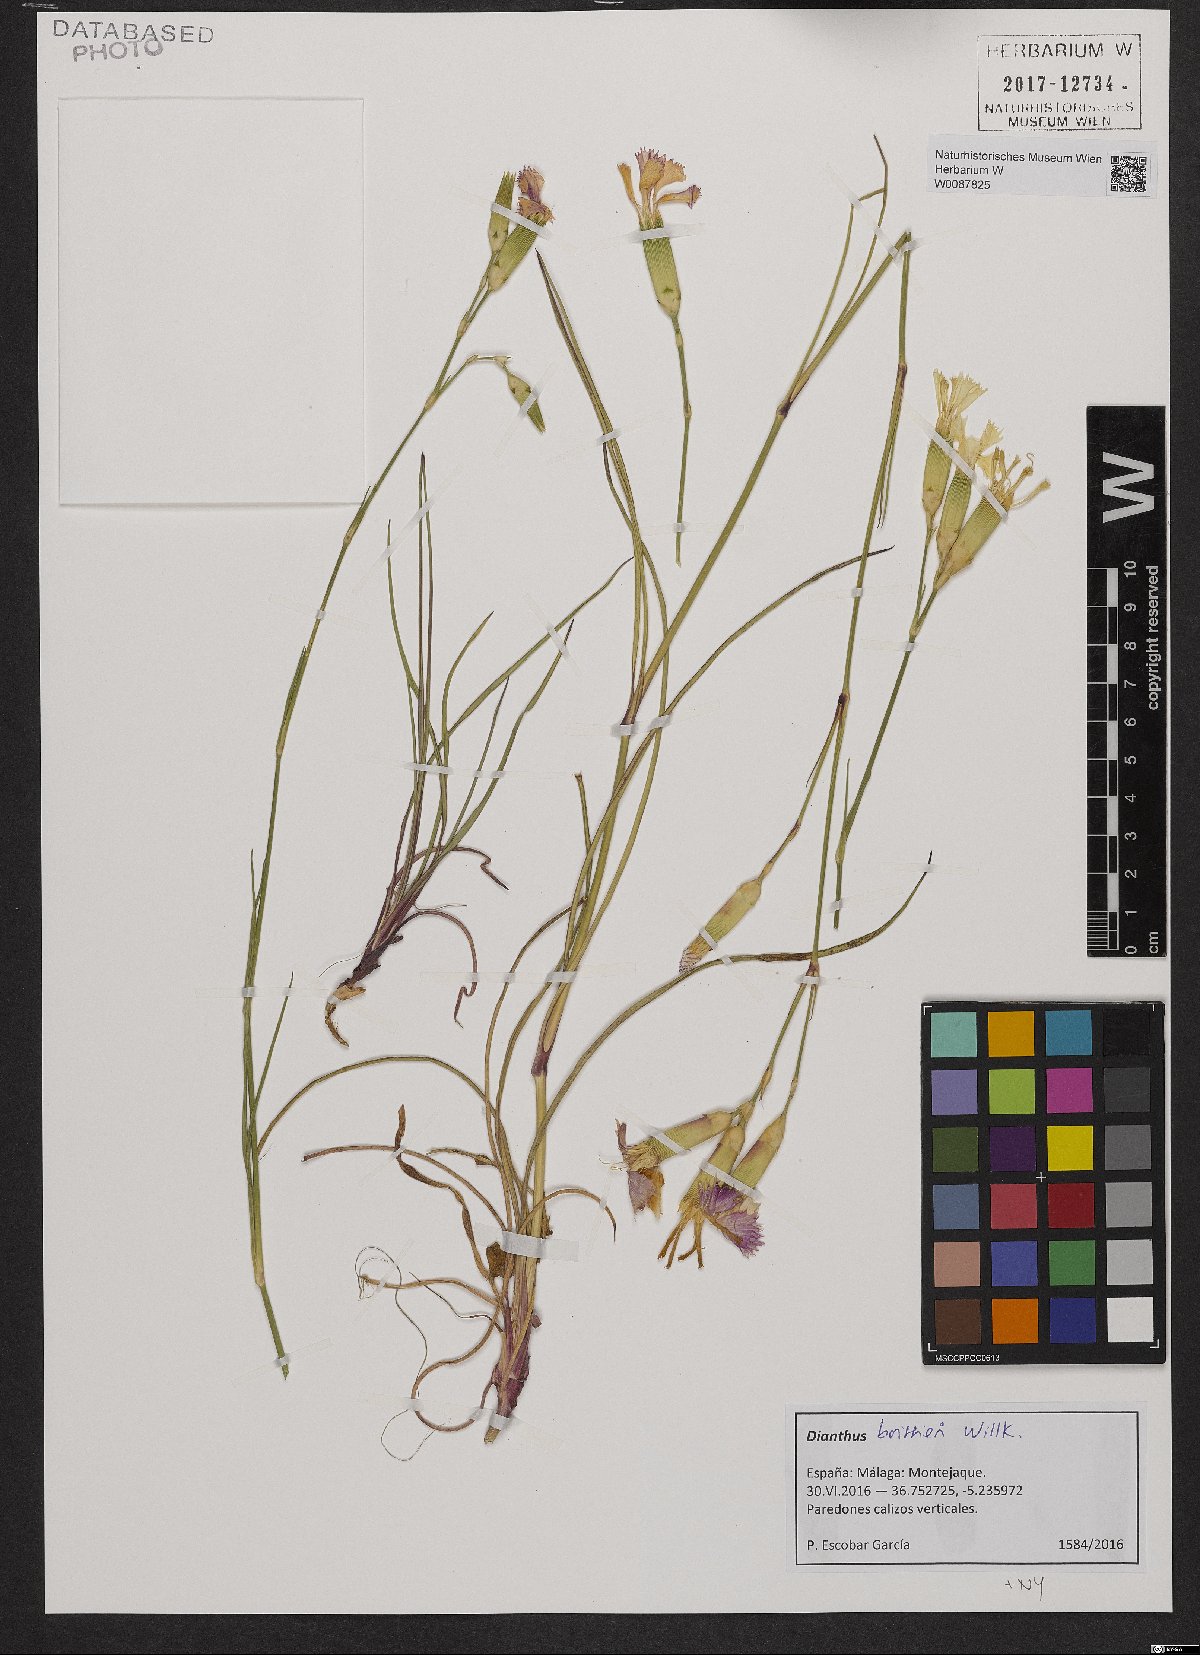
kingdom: Plantae
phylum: Tracheophyta
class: Magnoliopsida
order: Caryophyllales
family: Caryophyllaceae
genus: Dianthus
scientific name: Dianthus sylvestris
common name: Wood pink
